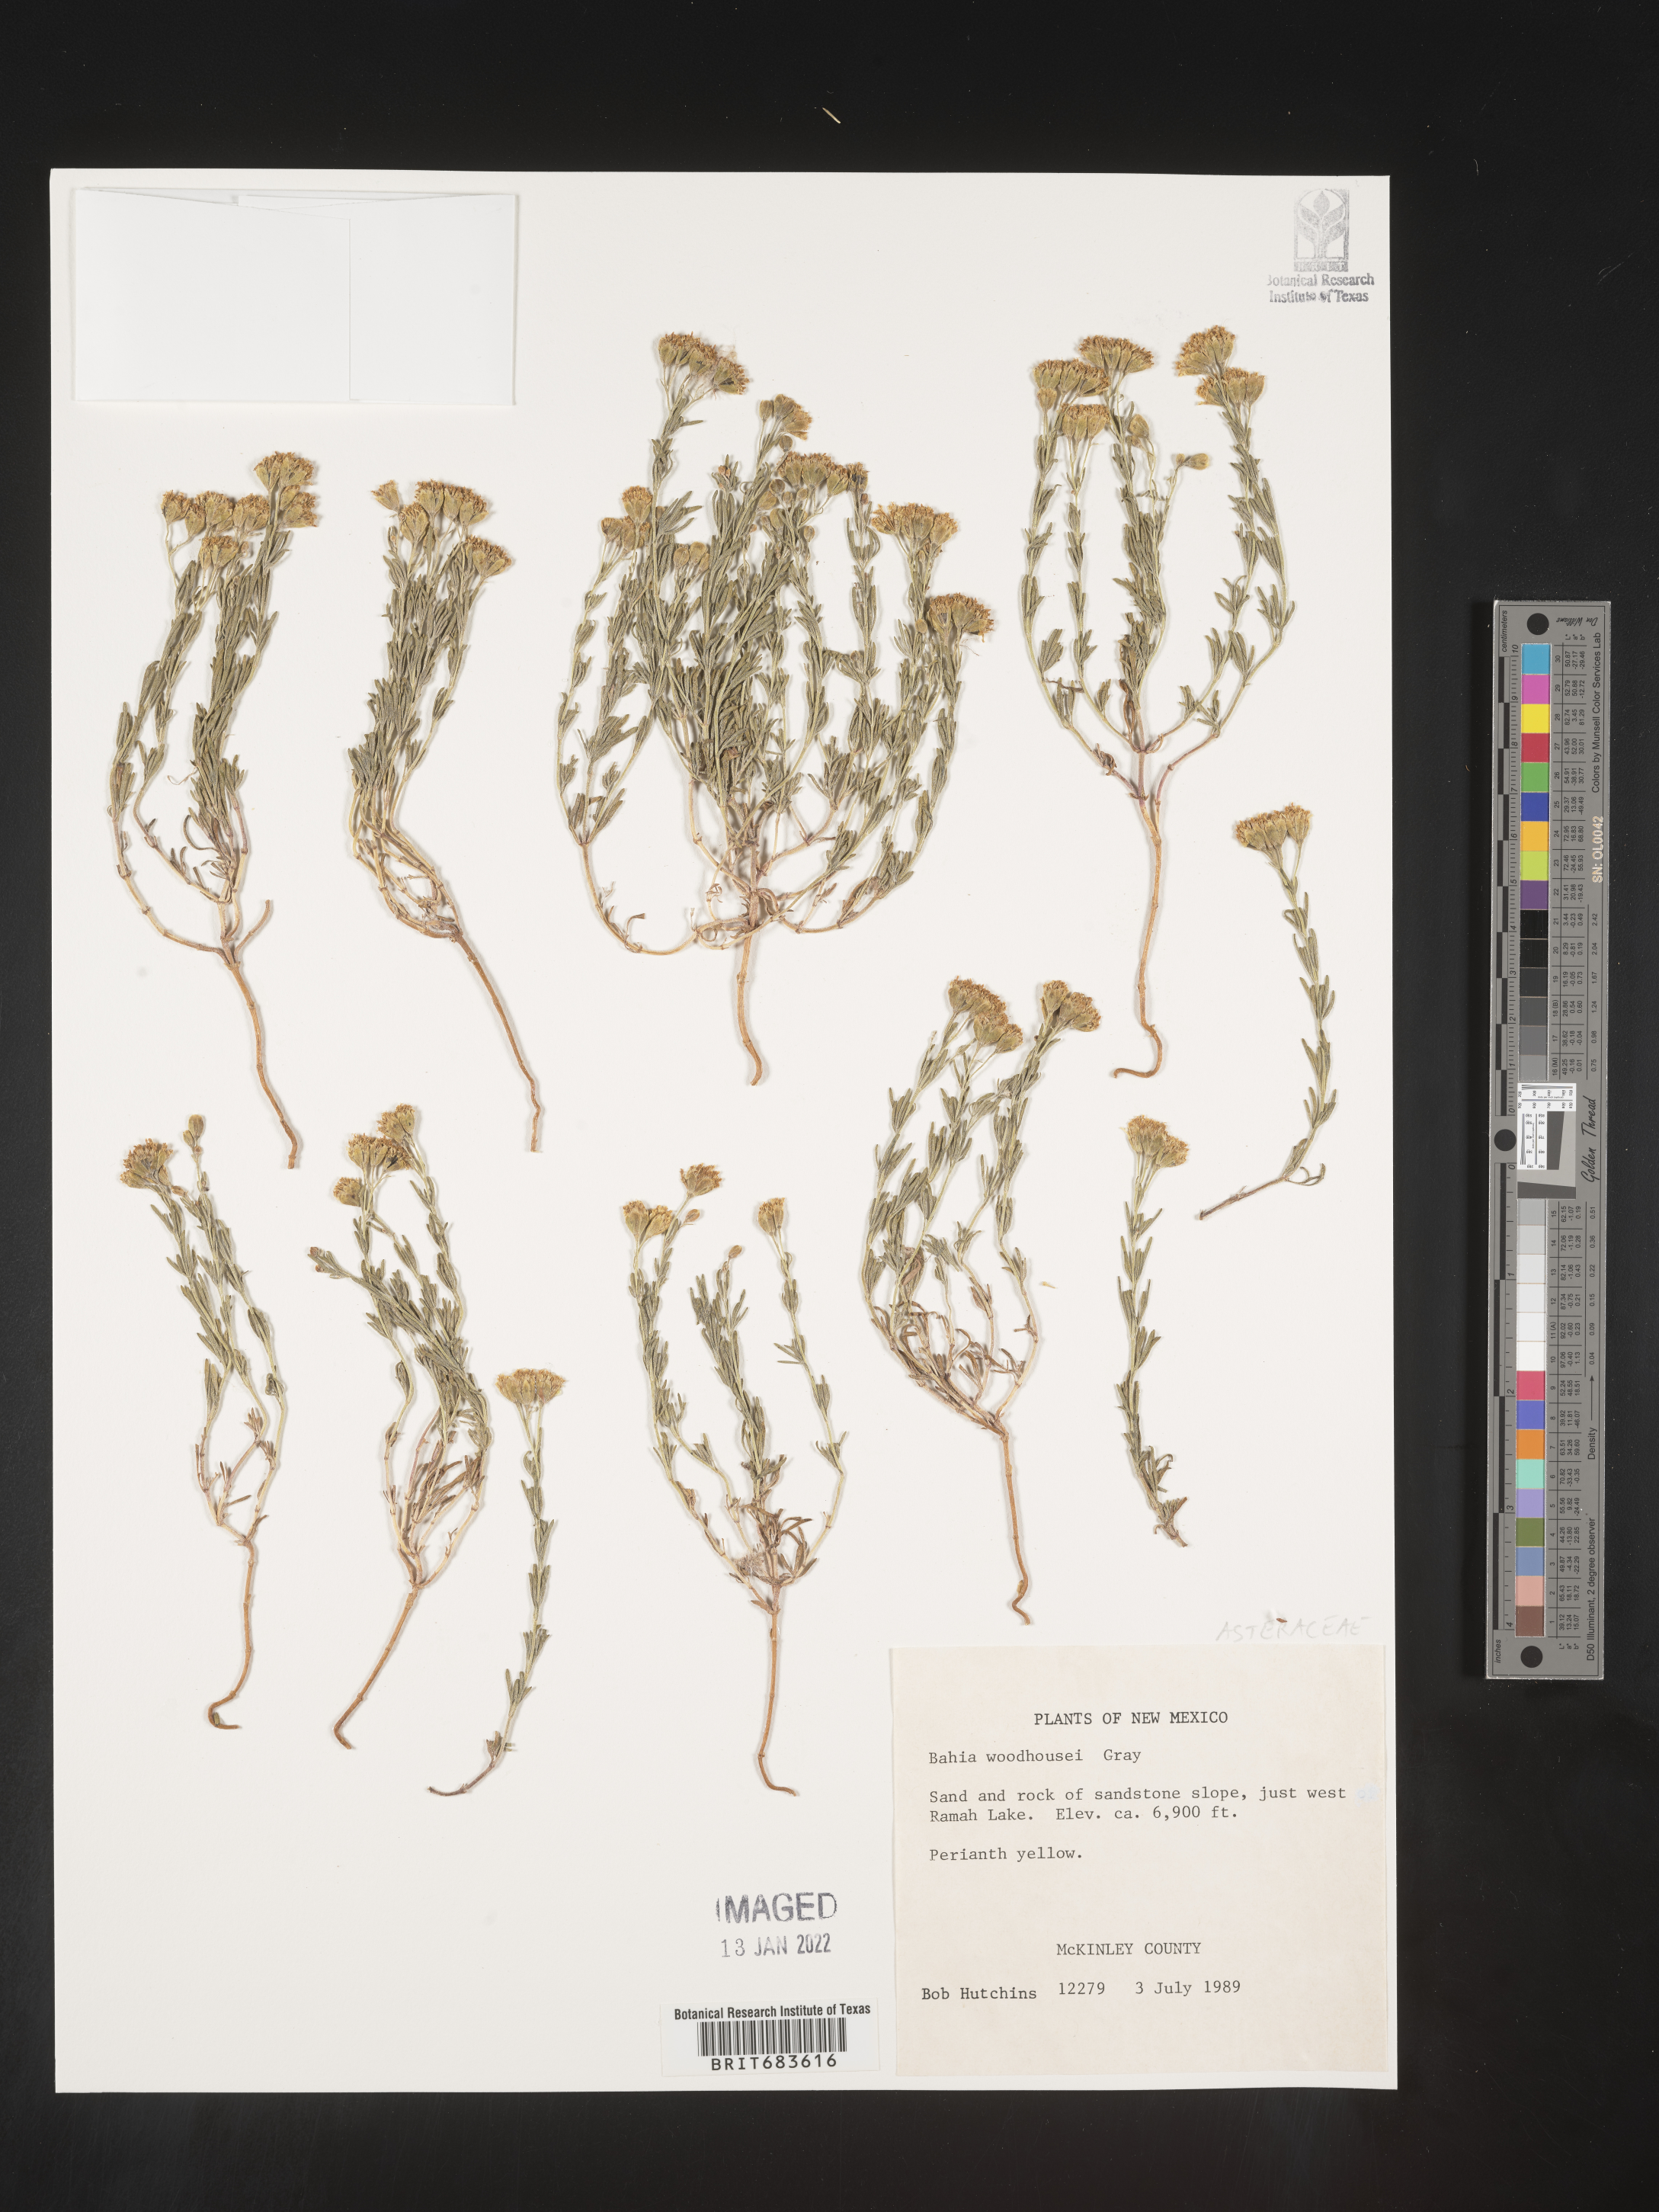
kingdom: Plantae
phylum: Tracheophyta
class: Magnoliopsida
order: Asterales
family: Asteraceae
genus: Picradeniopsis
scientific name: Picradeniopsis woodhousei
